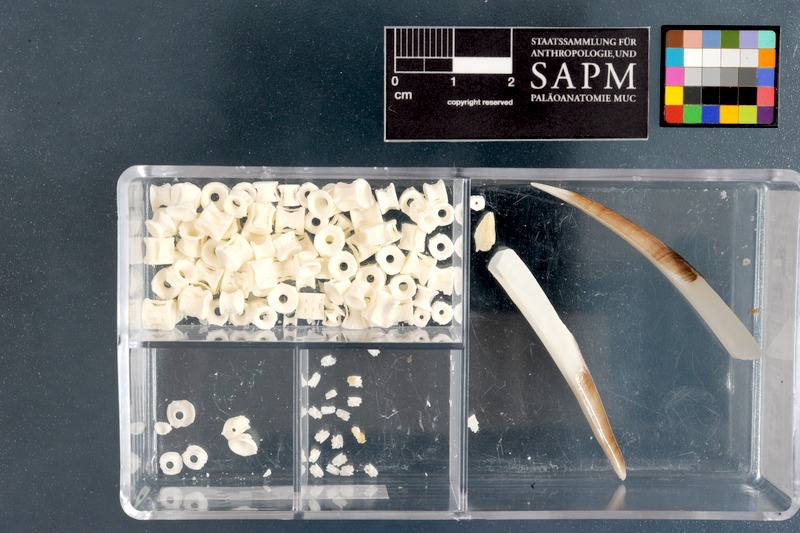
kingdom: Animalia
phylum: Chordata
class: Elasmobranchii
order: Squaliformes
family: Squalidae
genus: Squalus
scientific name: Squalus megalops
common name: Shortnose spurdog
